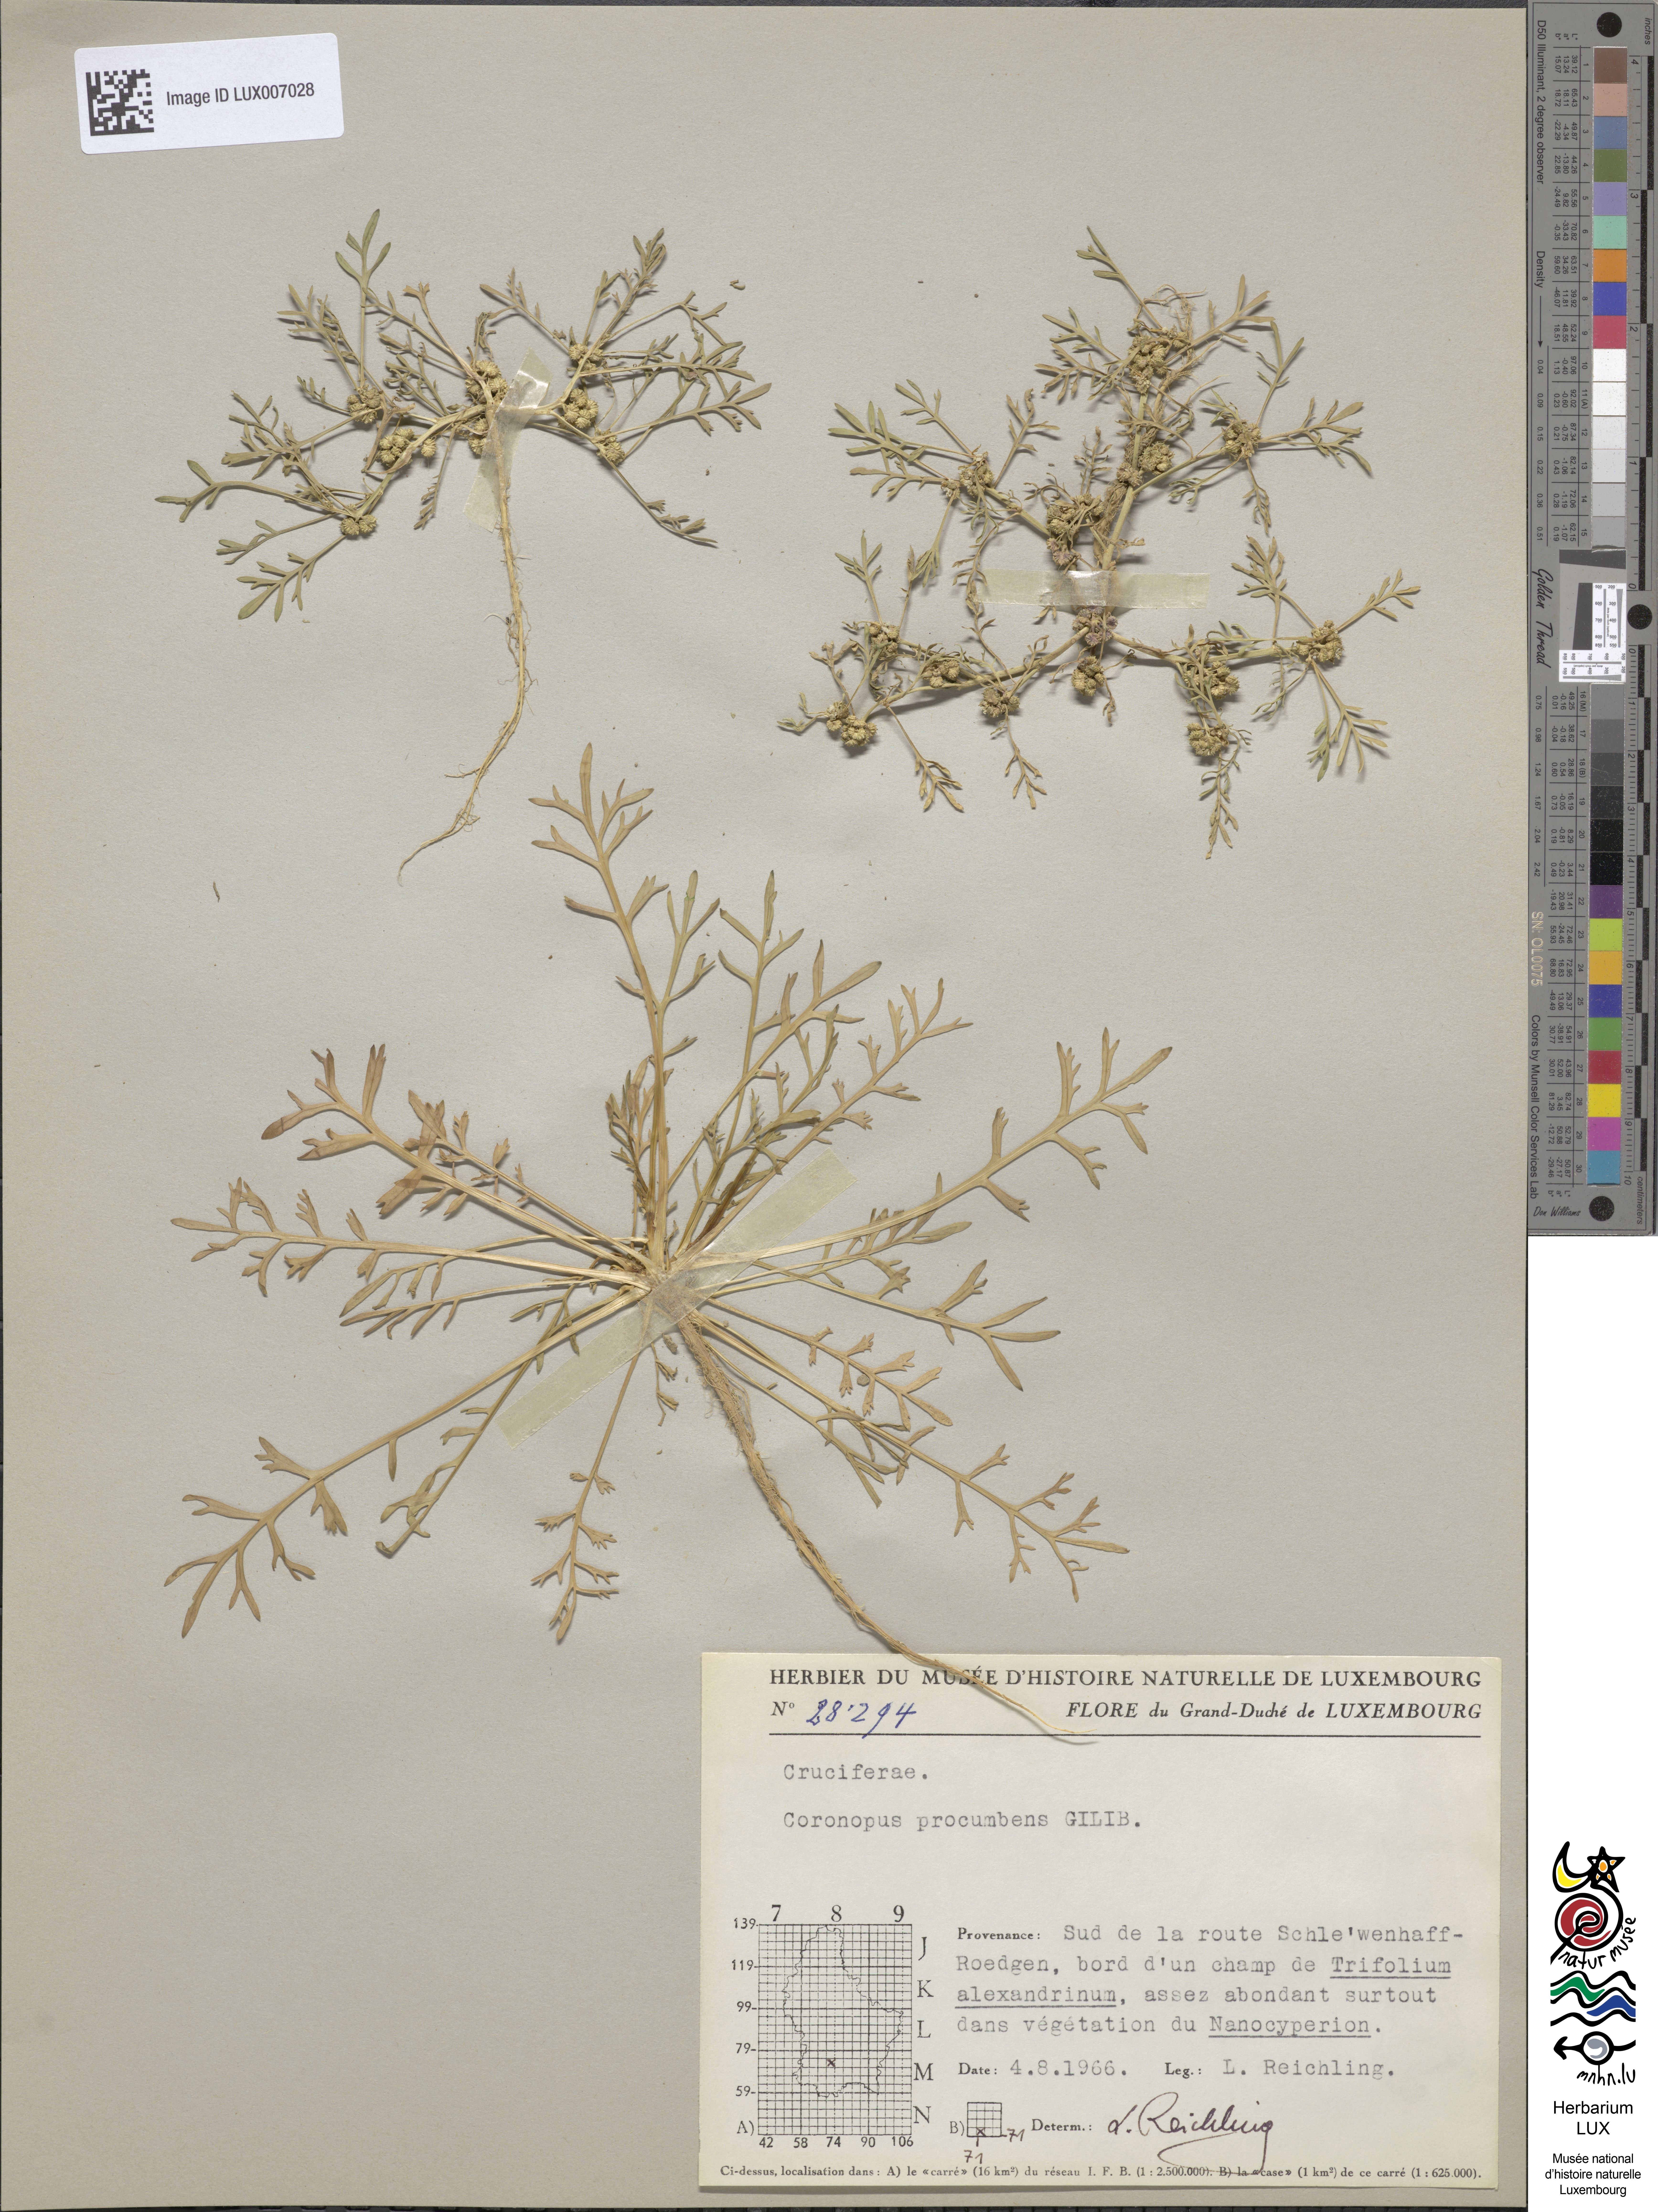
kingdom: Plantae
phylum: Tracheophyta
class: Magnoliopsida
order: Brassicales
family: Brassicaceae
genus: Lepidium
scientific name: Lepidium coronopus
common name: Greater swinecress
